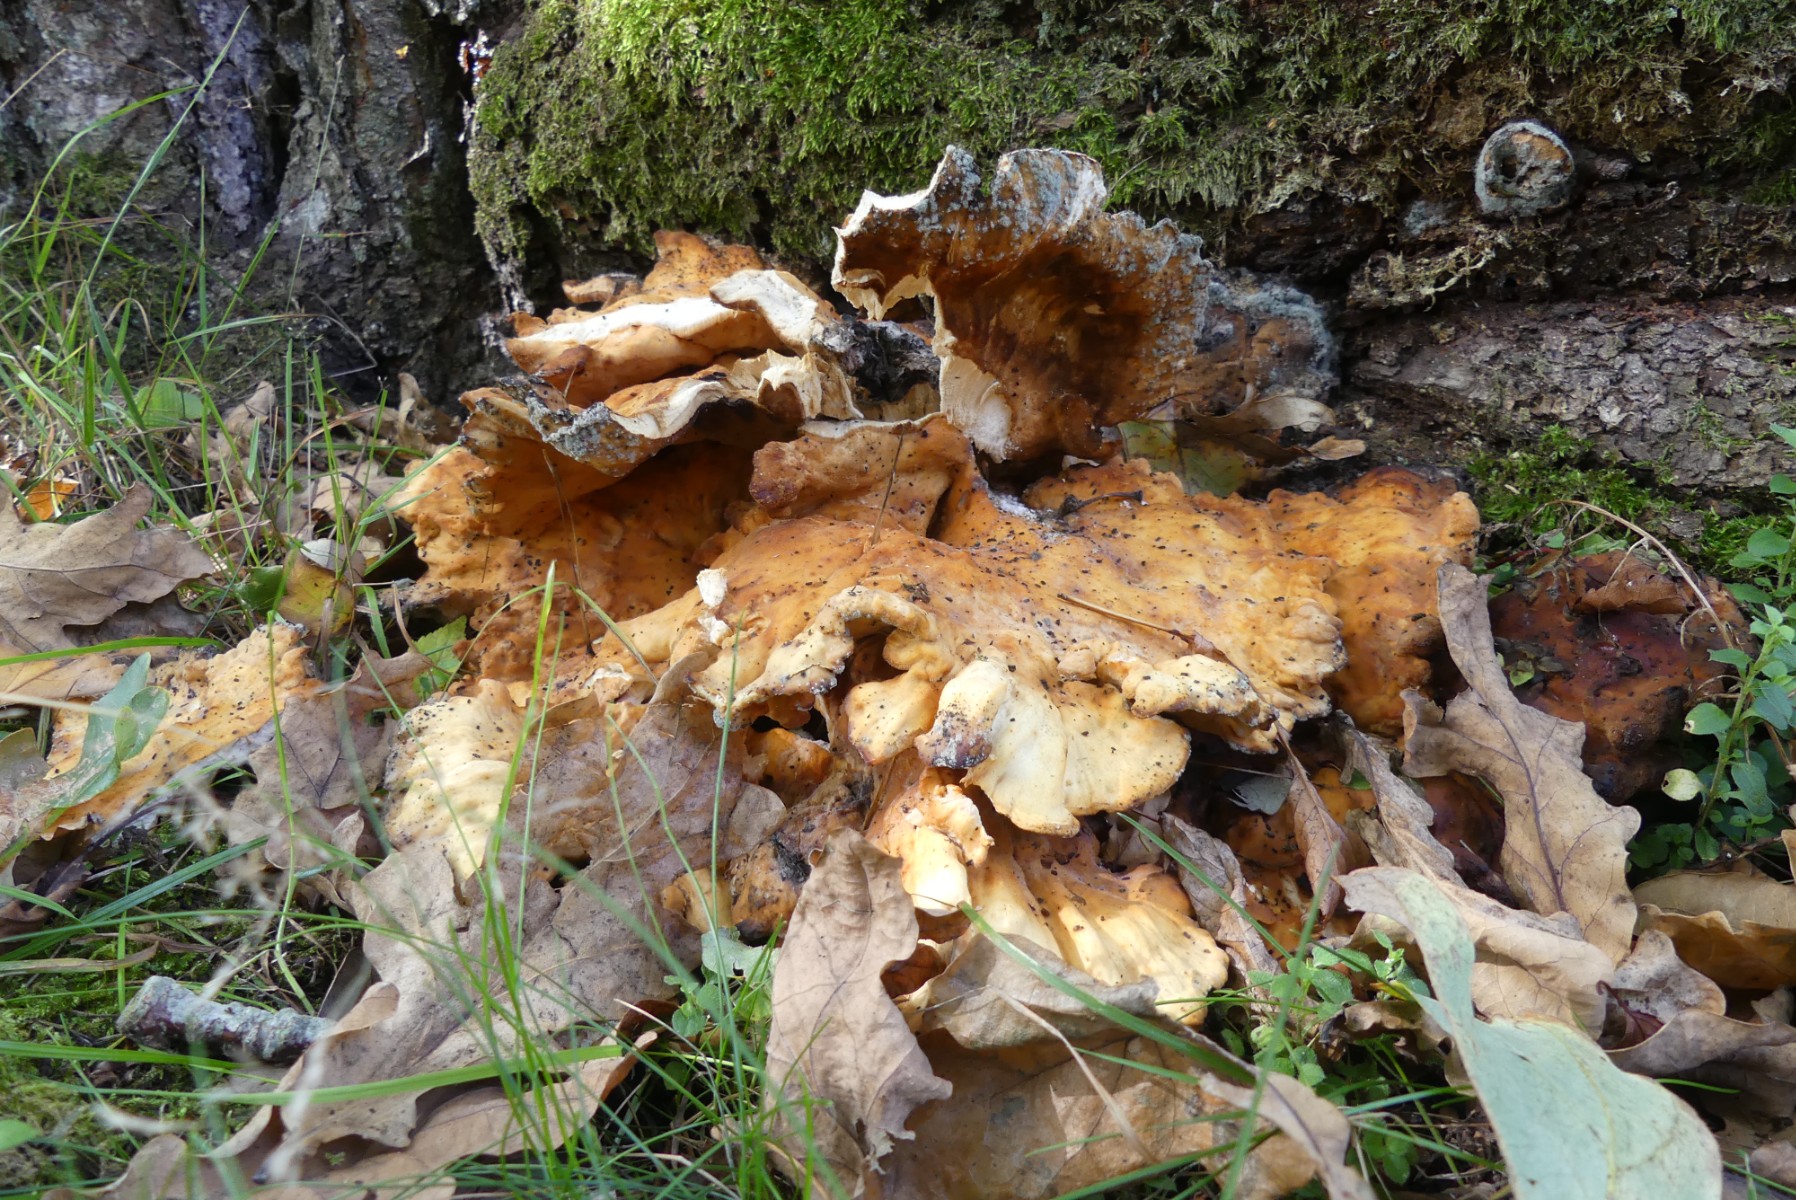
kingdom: Fungi
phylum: Basidiomycota
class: Agaricomycetes
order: Polyporales
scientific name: Polyporales
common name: poresvampordenen
